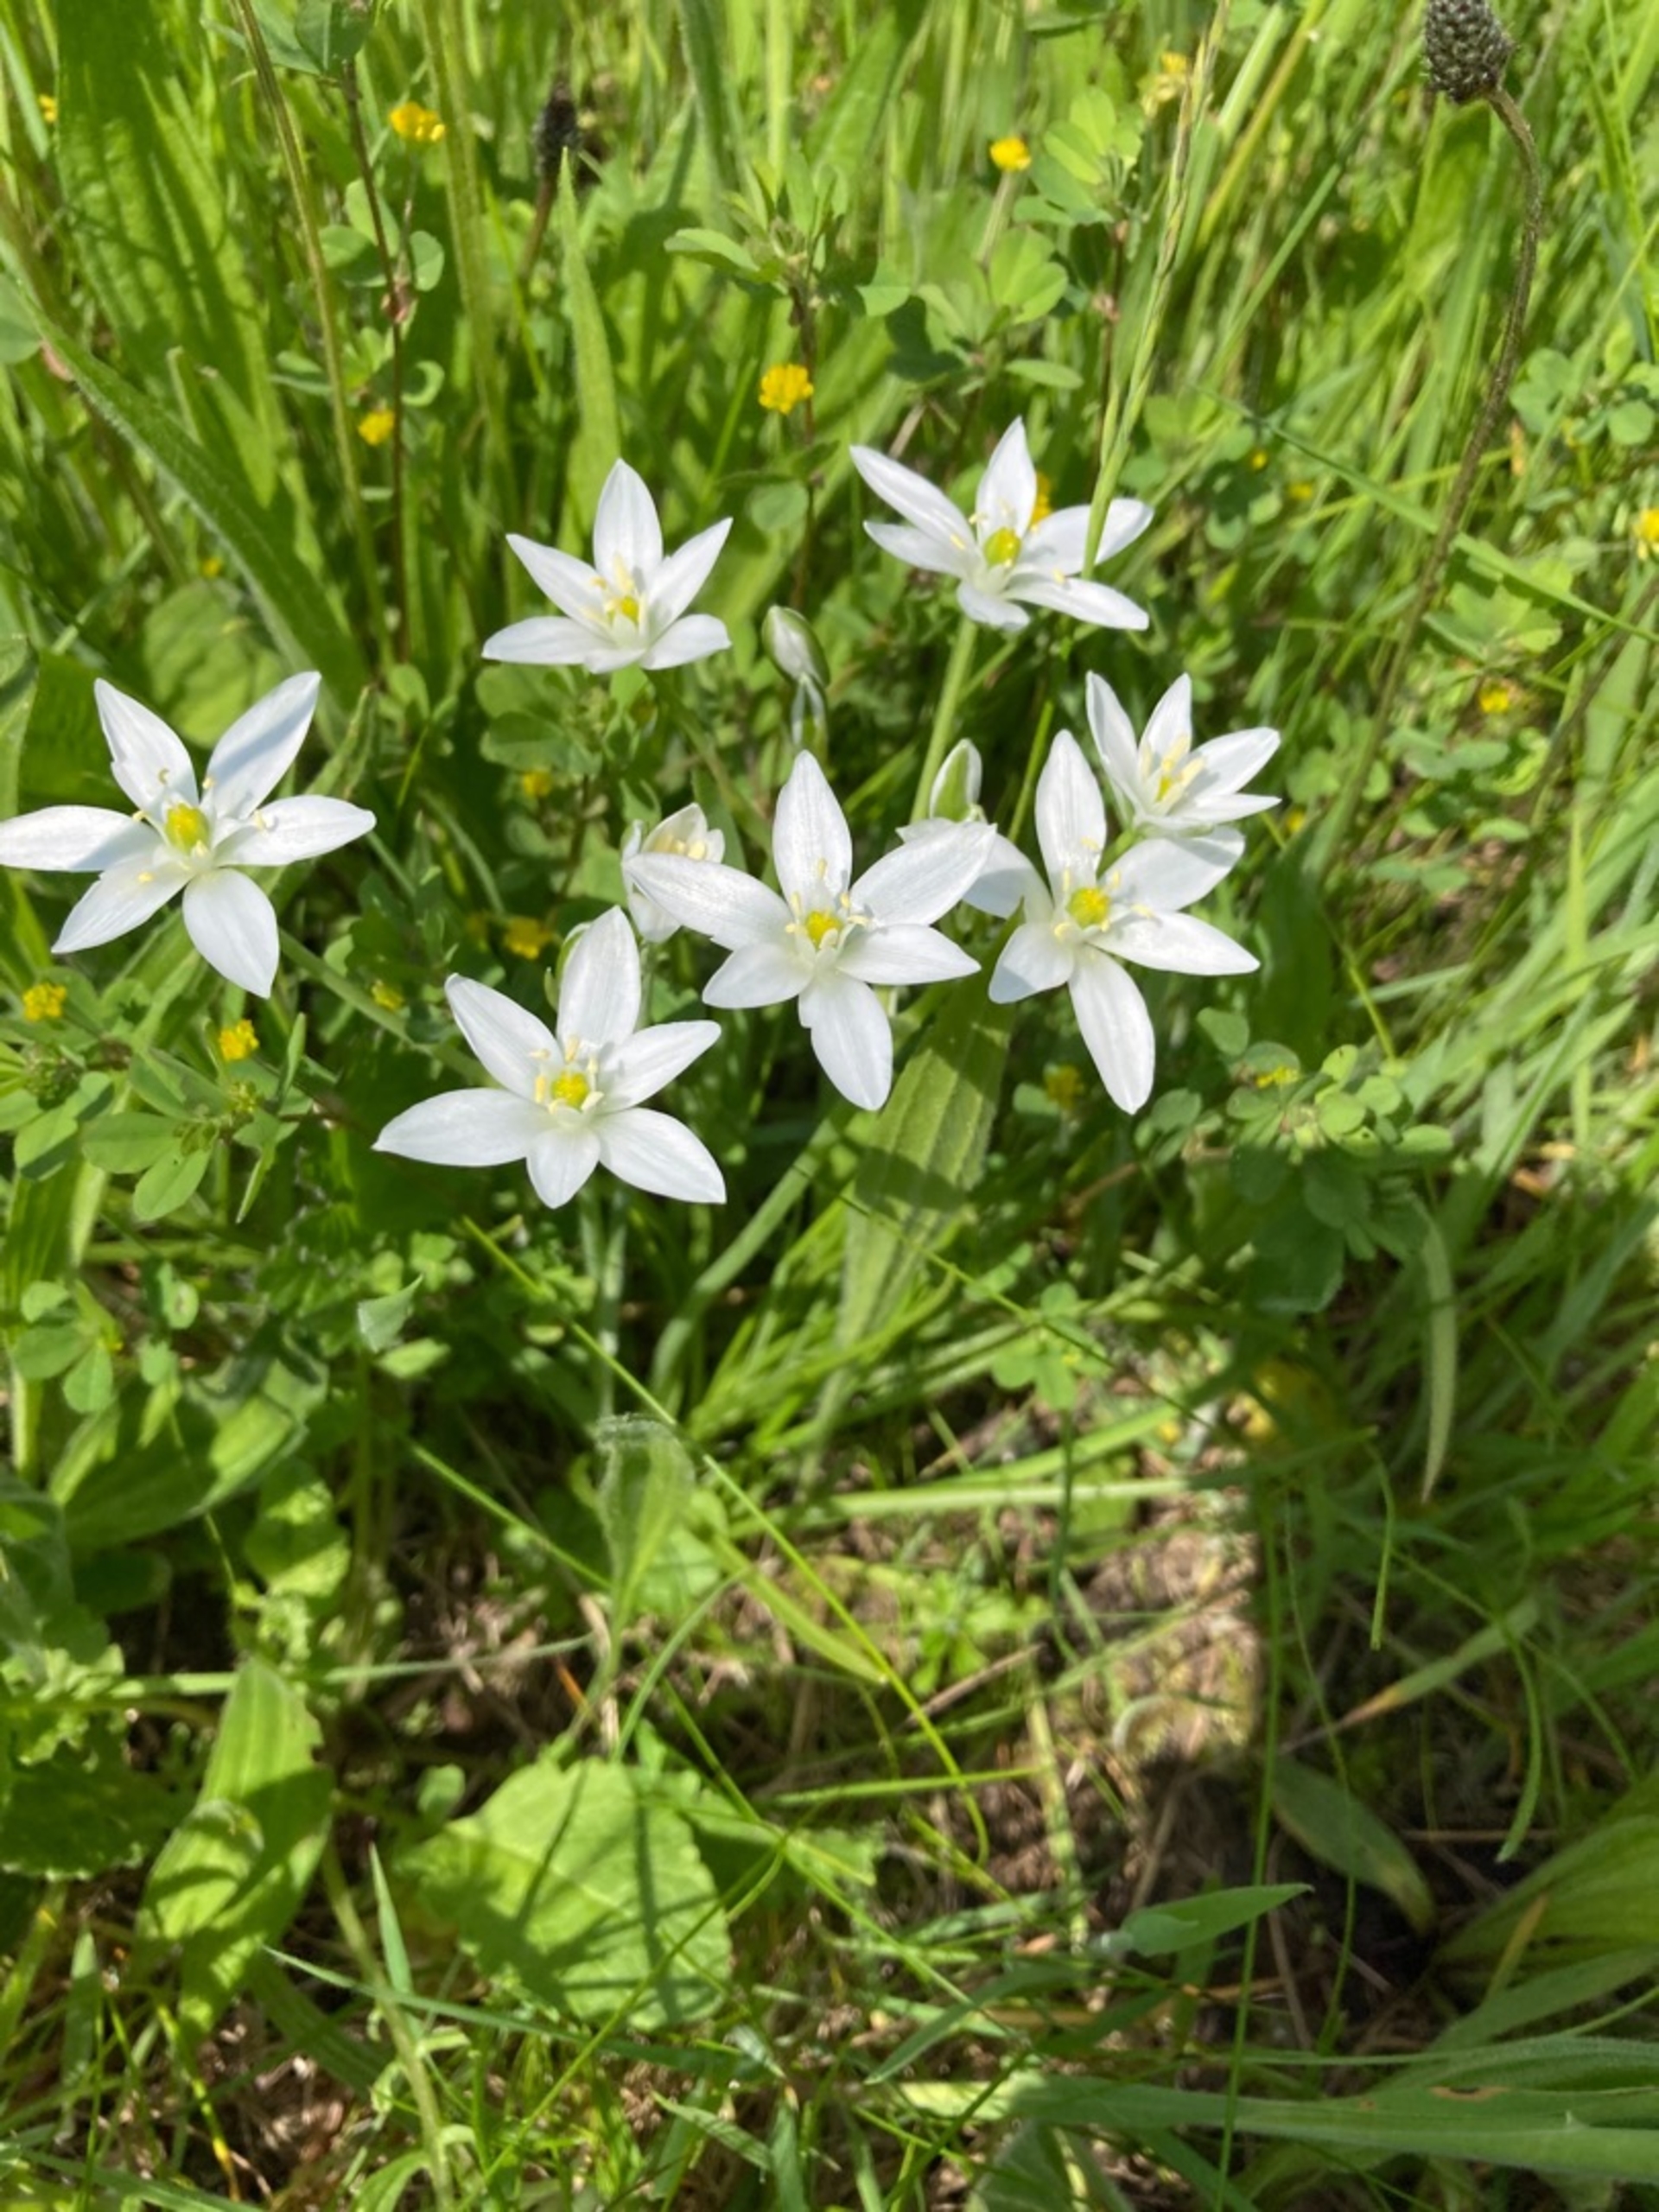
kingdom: Plantae
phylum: Tracheophyta
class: Liliopsida
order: Asparagales
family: Asparagaceae
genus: Ornithogalum
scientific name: Ornithogalum umbellatum
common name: Kost-fuglemælk
